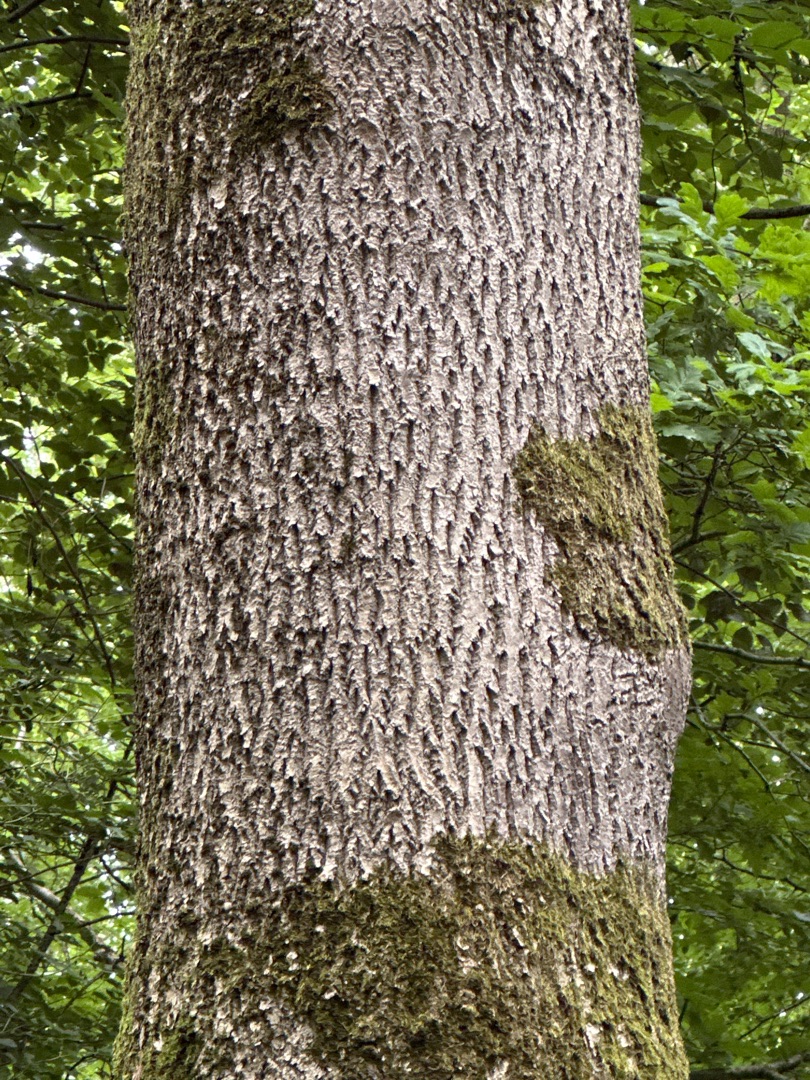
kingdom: Plantae
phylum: Tracheophyta
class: Magnoliopsida
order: Lamiales
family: Oleaceae
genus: Fraxinus
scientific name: Fraxinus excelsior
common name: Ask
